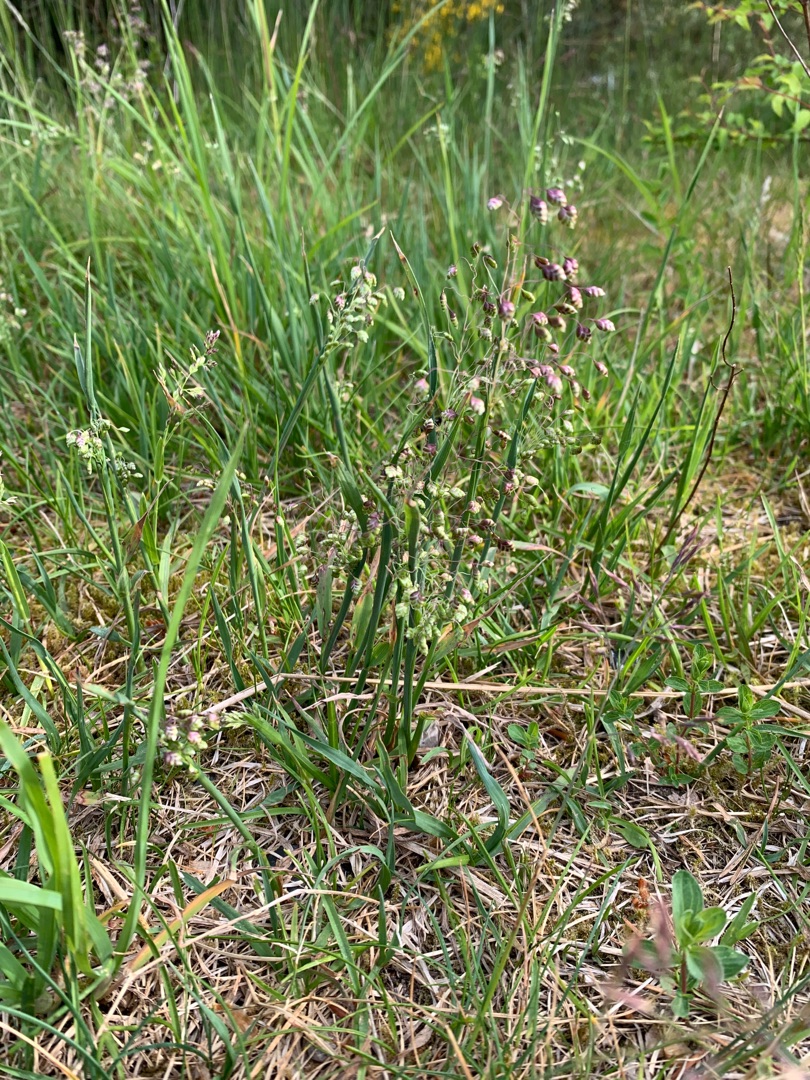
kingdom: Plantae
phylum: Tracheophyta
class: Liliopsida
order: Poales
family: Poaceae
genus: Briza
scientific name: Briza media
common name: Hjertegræs
